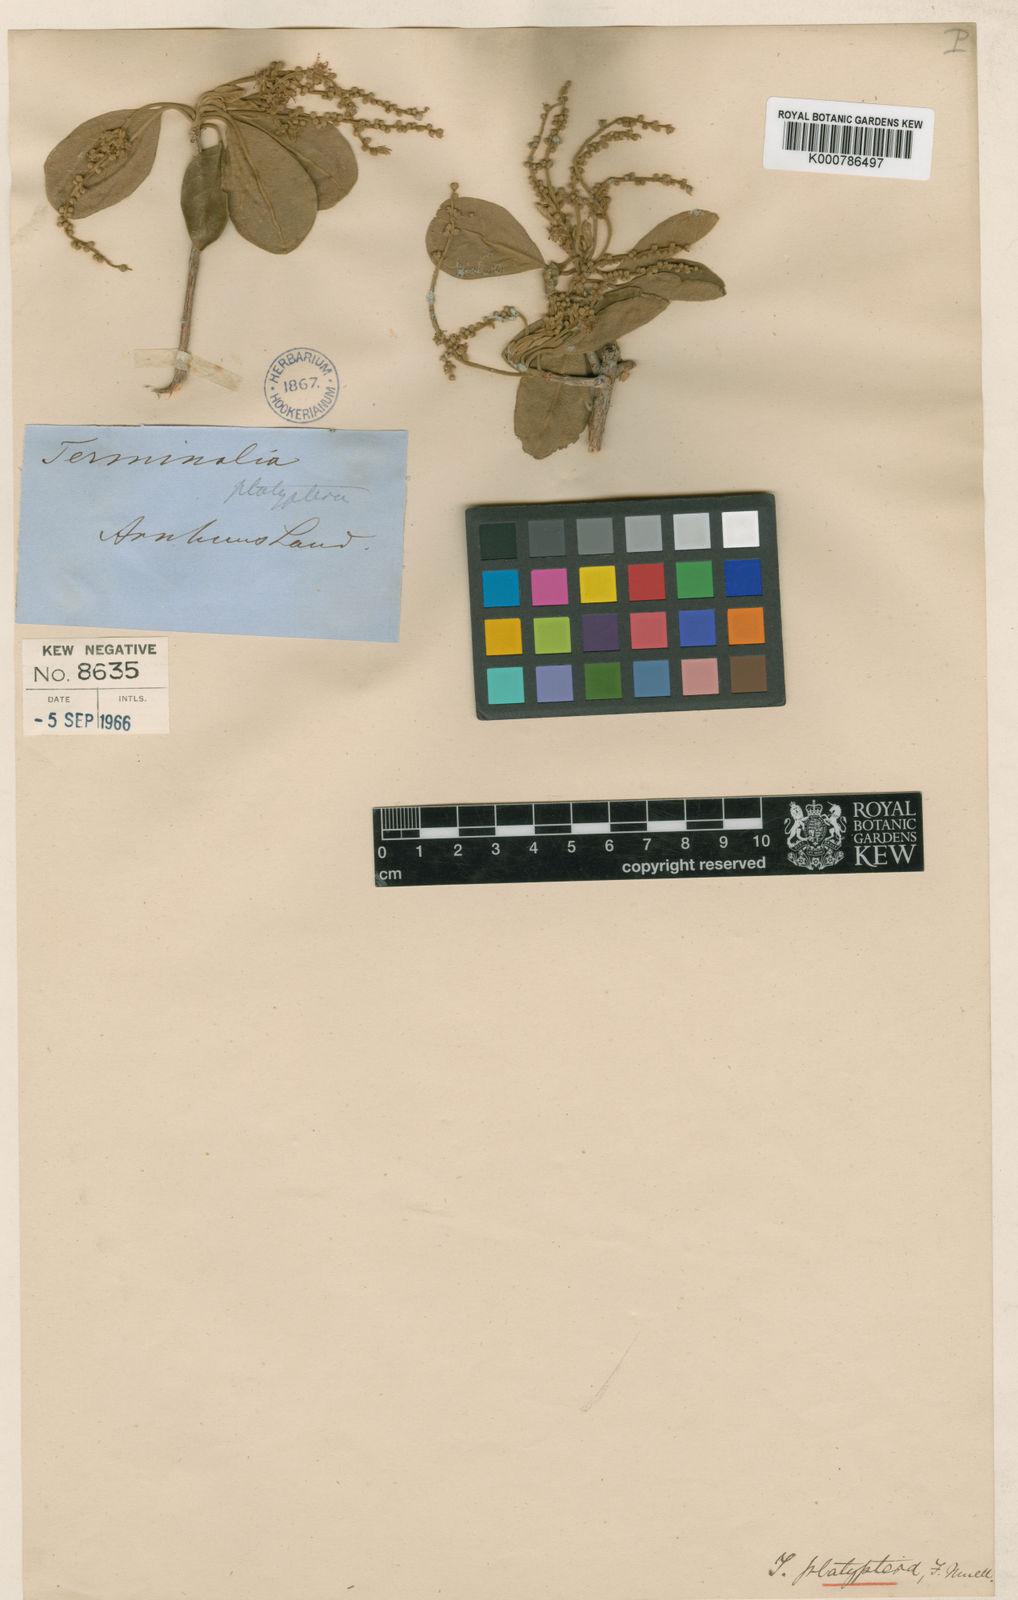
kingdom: Plantae
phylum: Tracheophyta
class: Magnoliopsida
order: Myrtales
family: Combretaceae
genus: Terminalia
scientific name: Terminalia platyptera
